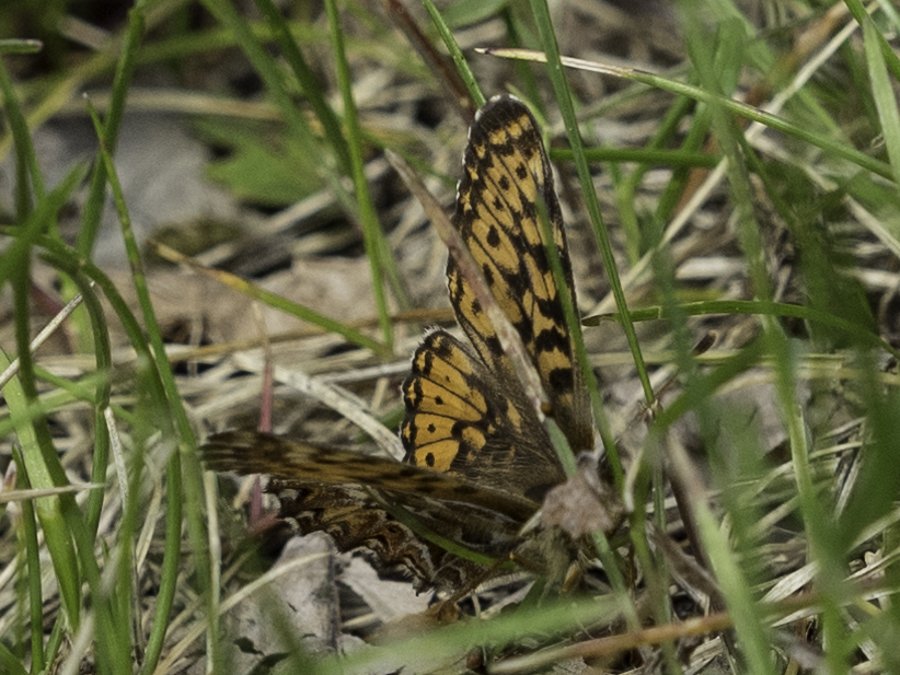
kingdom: Animalia
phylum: Arthropoda
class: Insecta
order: Lepidoptera
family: Nymphalidae
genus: Boloria
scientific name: Boloria freija
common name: Freija Fritillary
